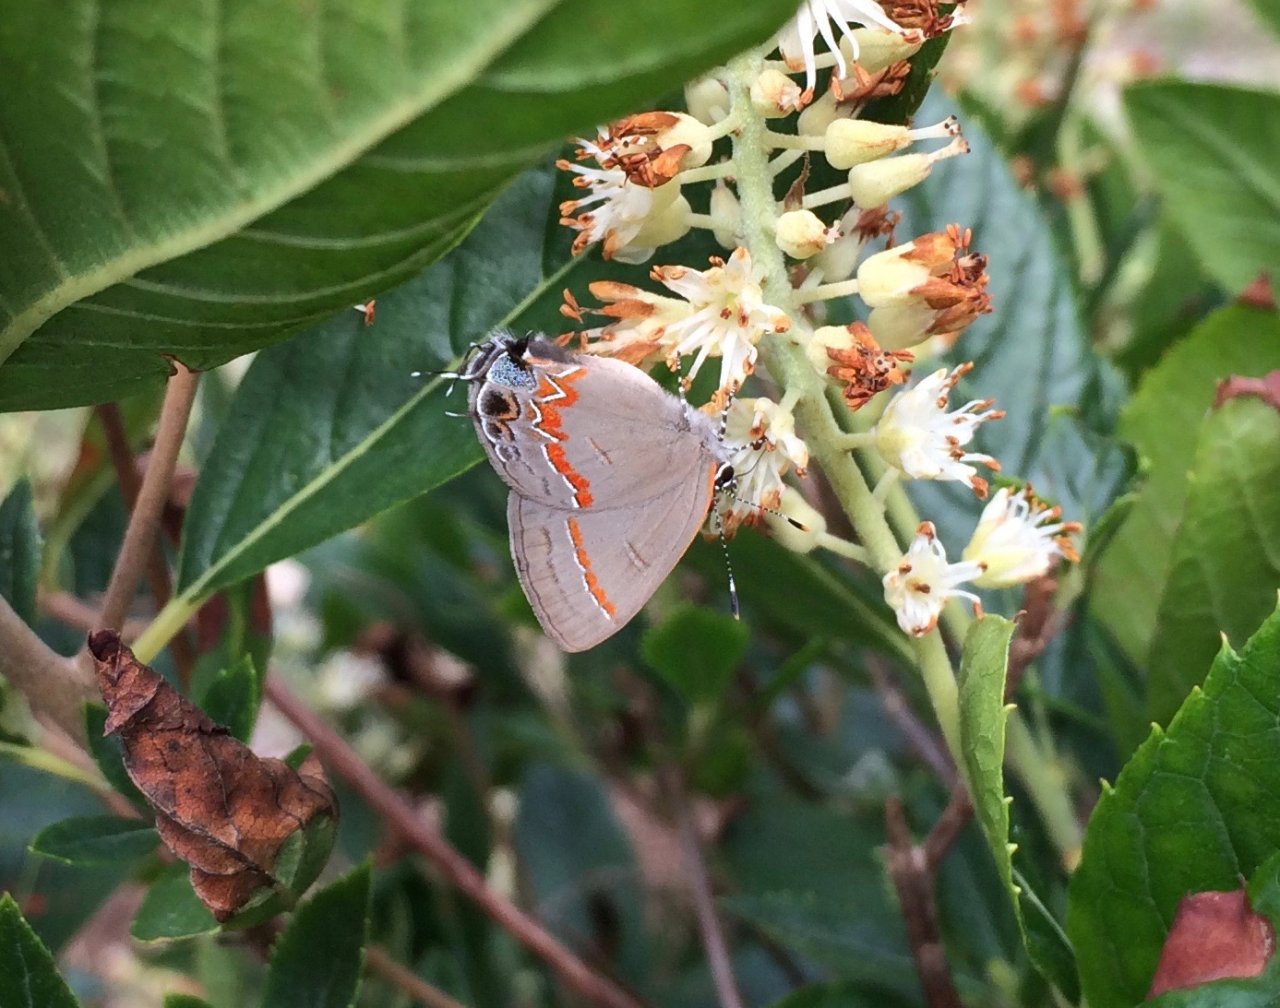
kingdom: Animalia
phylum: Arthropoda
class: Insecta
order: Lepidoptera
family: Lycaenidae
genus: Calycopis
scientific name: Calycopis cecrops
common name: Red-banded Hairstreak
